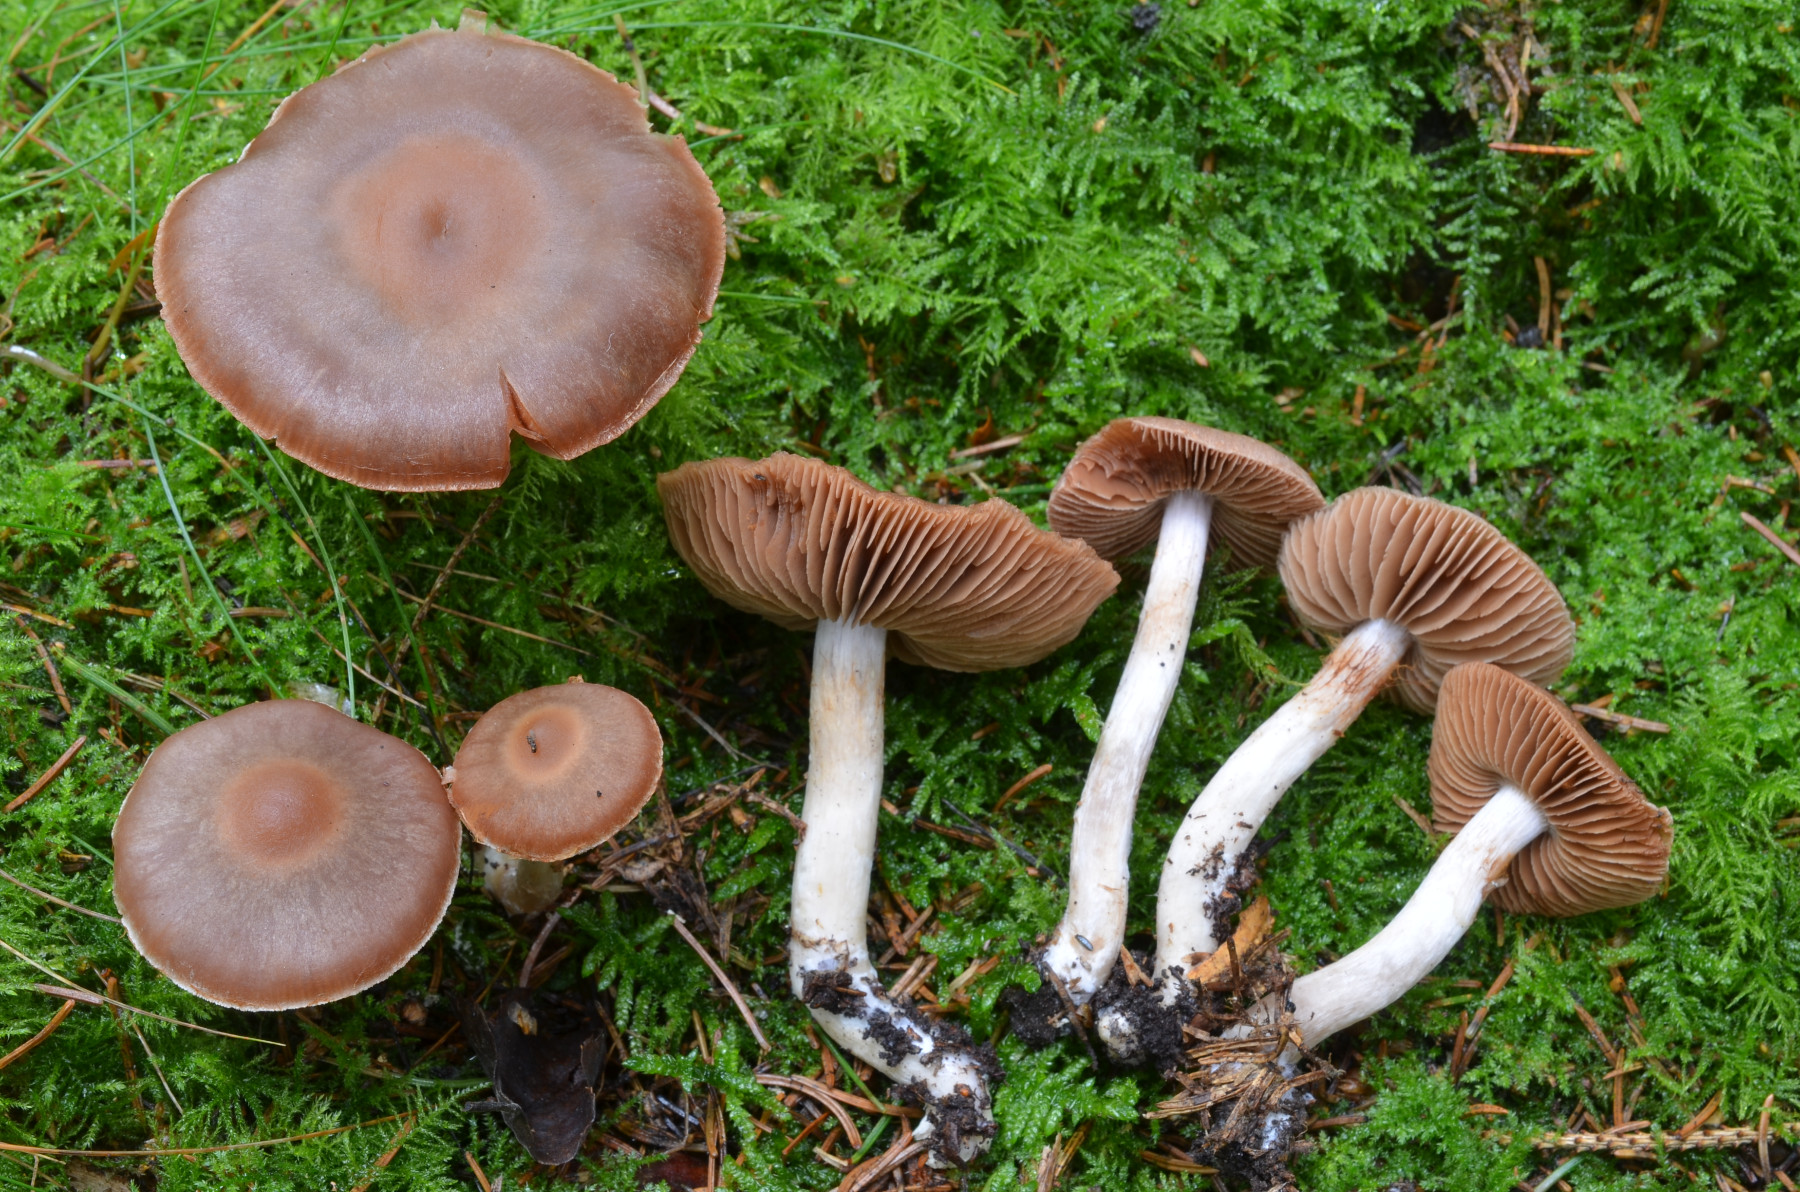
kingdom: Fungi
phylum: Basidiomycota
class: Agaricomycetes
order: Agaricales
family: Cortinariaceae
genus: Cortinarius
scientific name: Cortinarius hircinosmus
